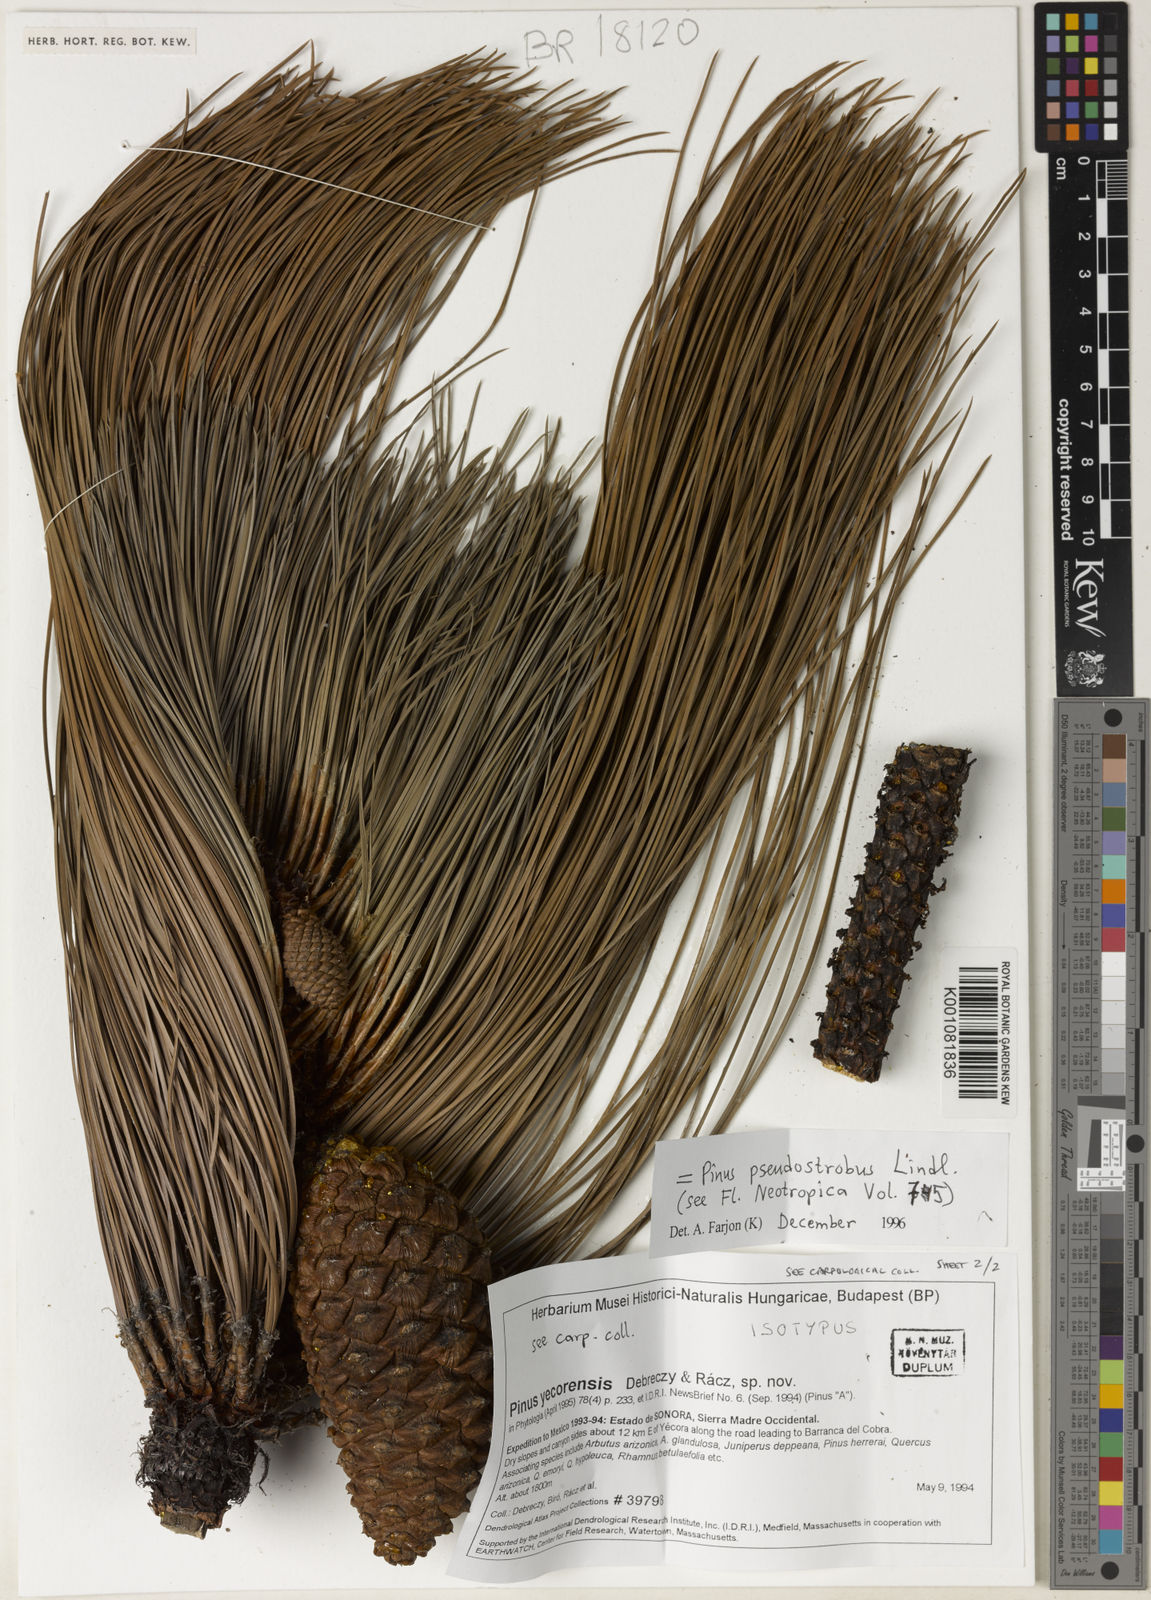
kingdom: Plantae
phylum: Tracheophyta
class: Pinopsida
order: Pinales
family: Pinaceae
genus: Pinus
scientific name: Pinus pseudostrobus
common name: False weymouth pine
